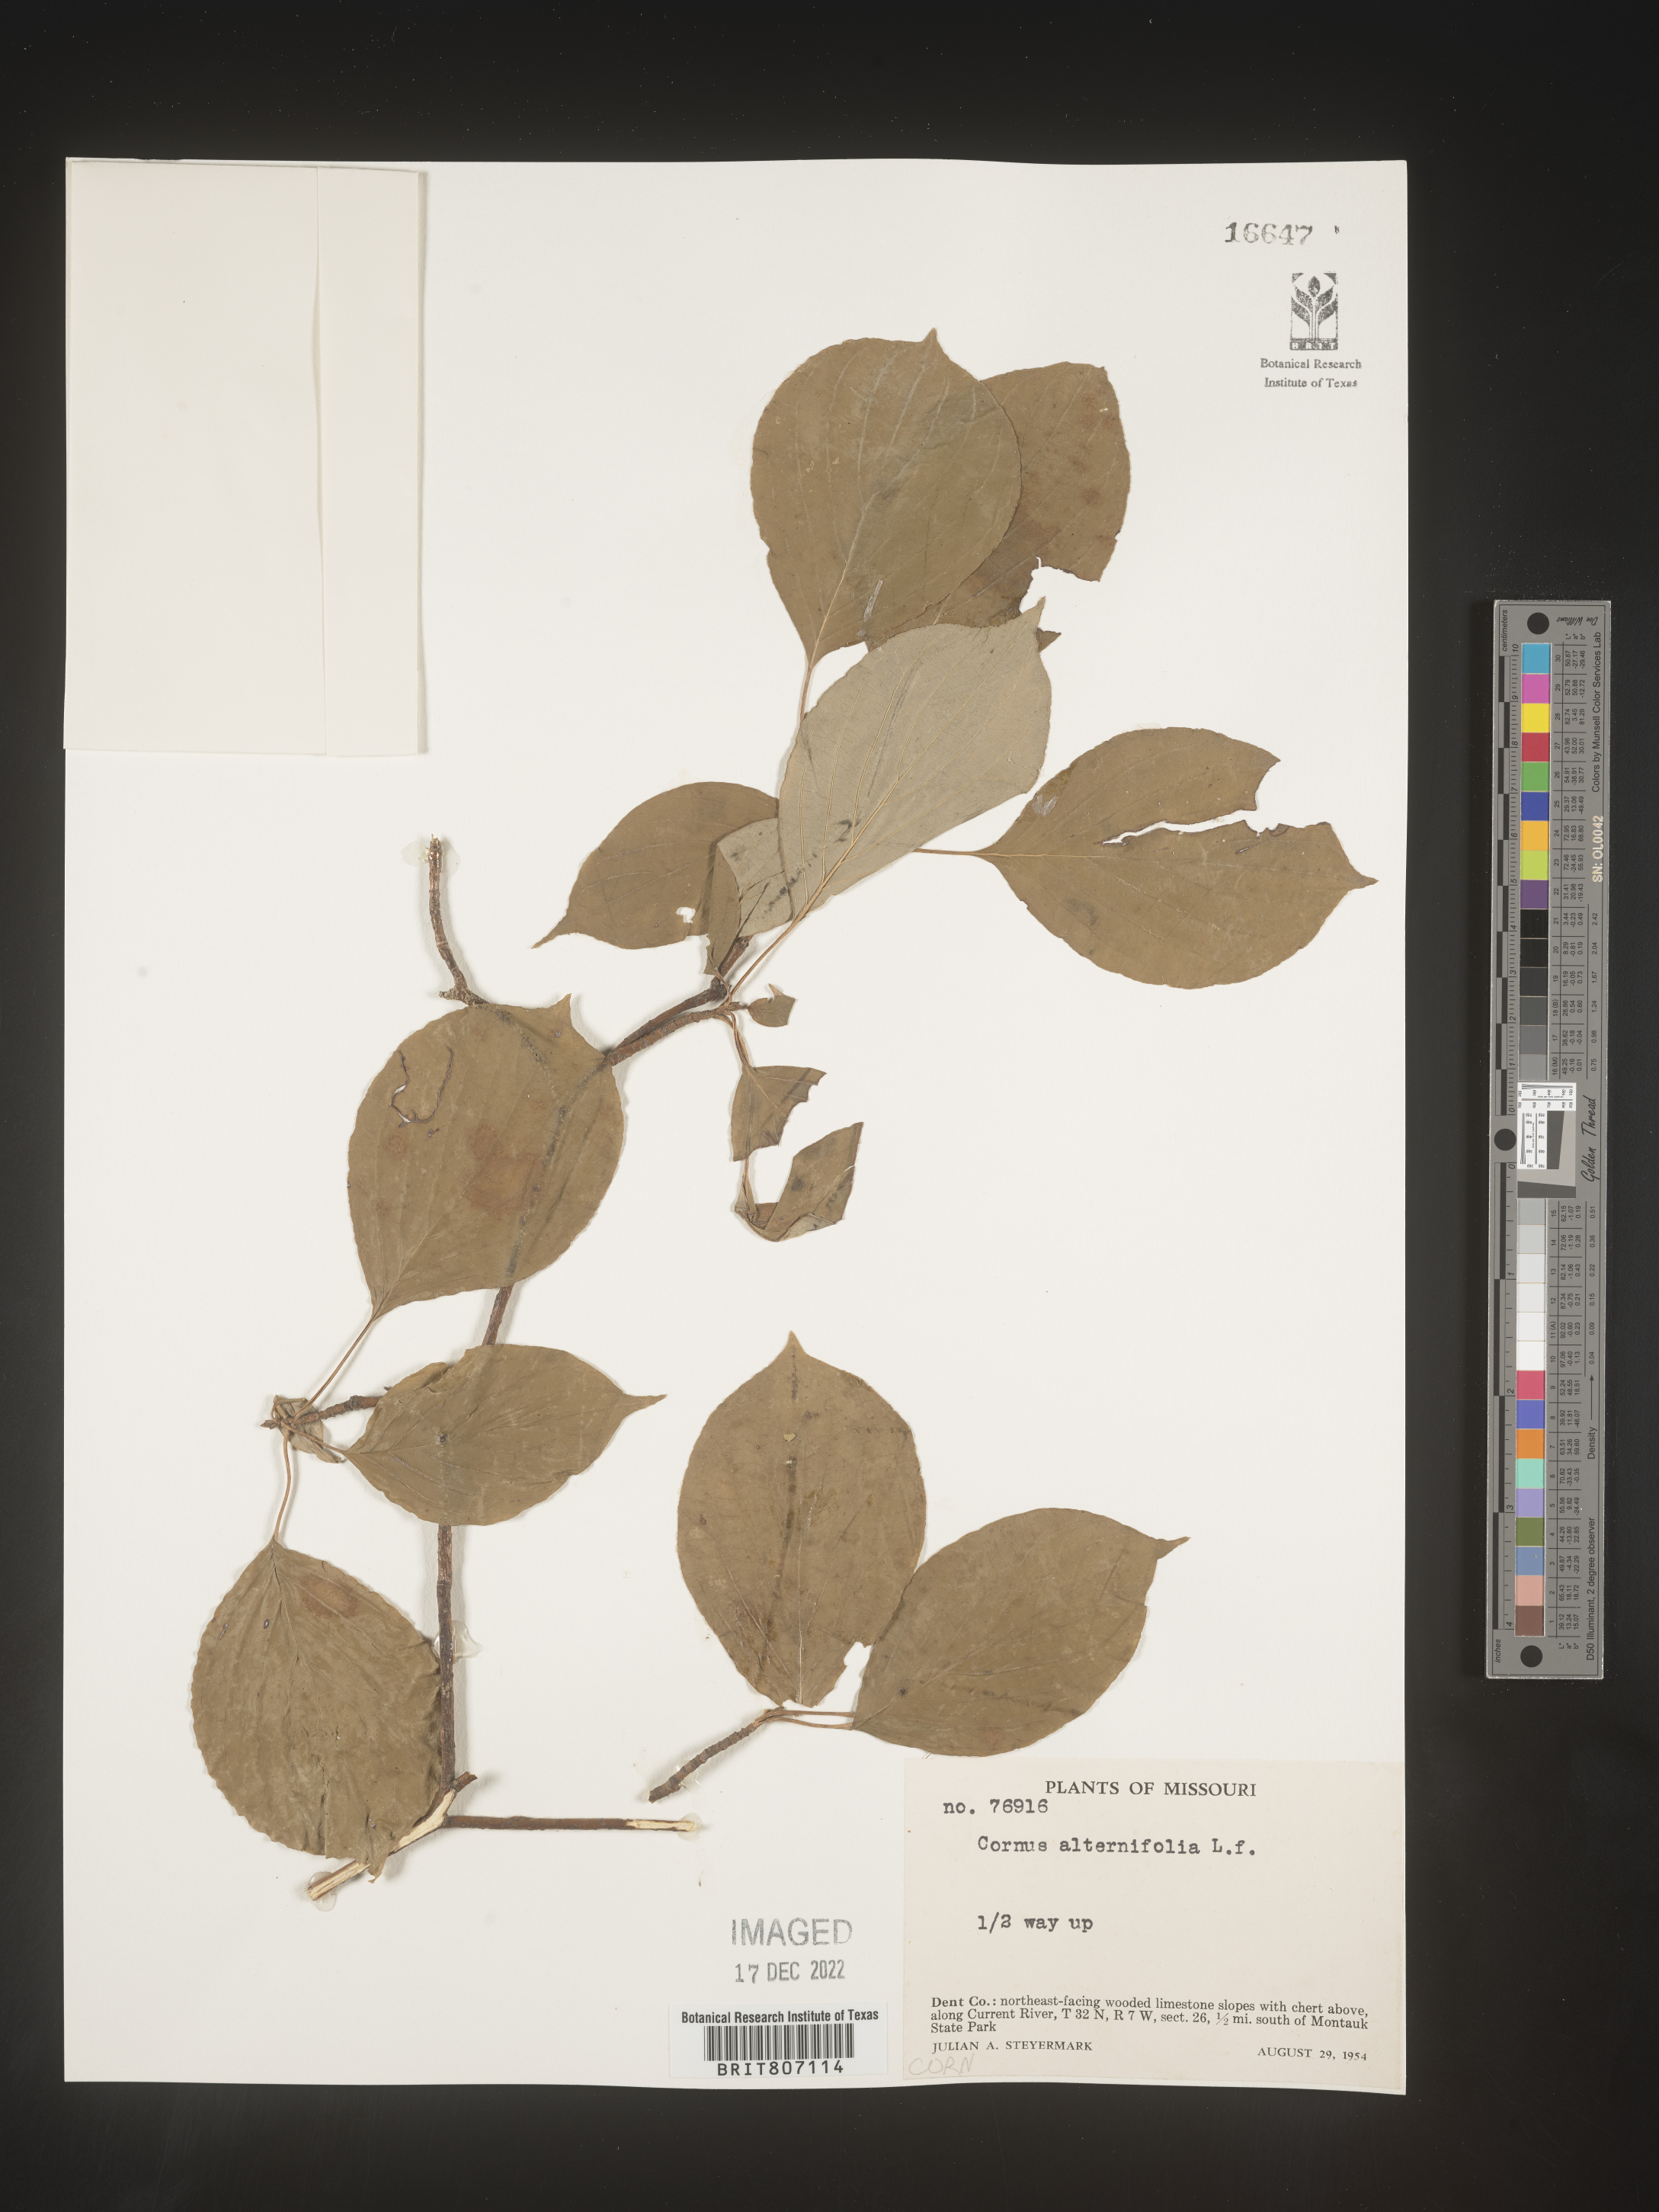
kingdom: Plantae
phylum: Tracheophyta
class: Magnoliopsida
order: Cornales
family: Cornaceae
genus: Cornus
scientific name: Cornus alternifolia
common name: Pagoda dogwood
